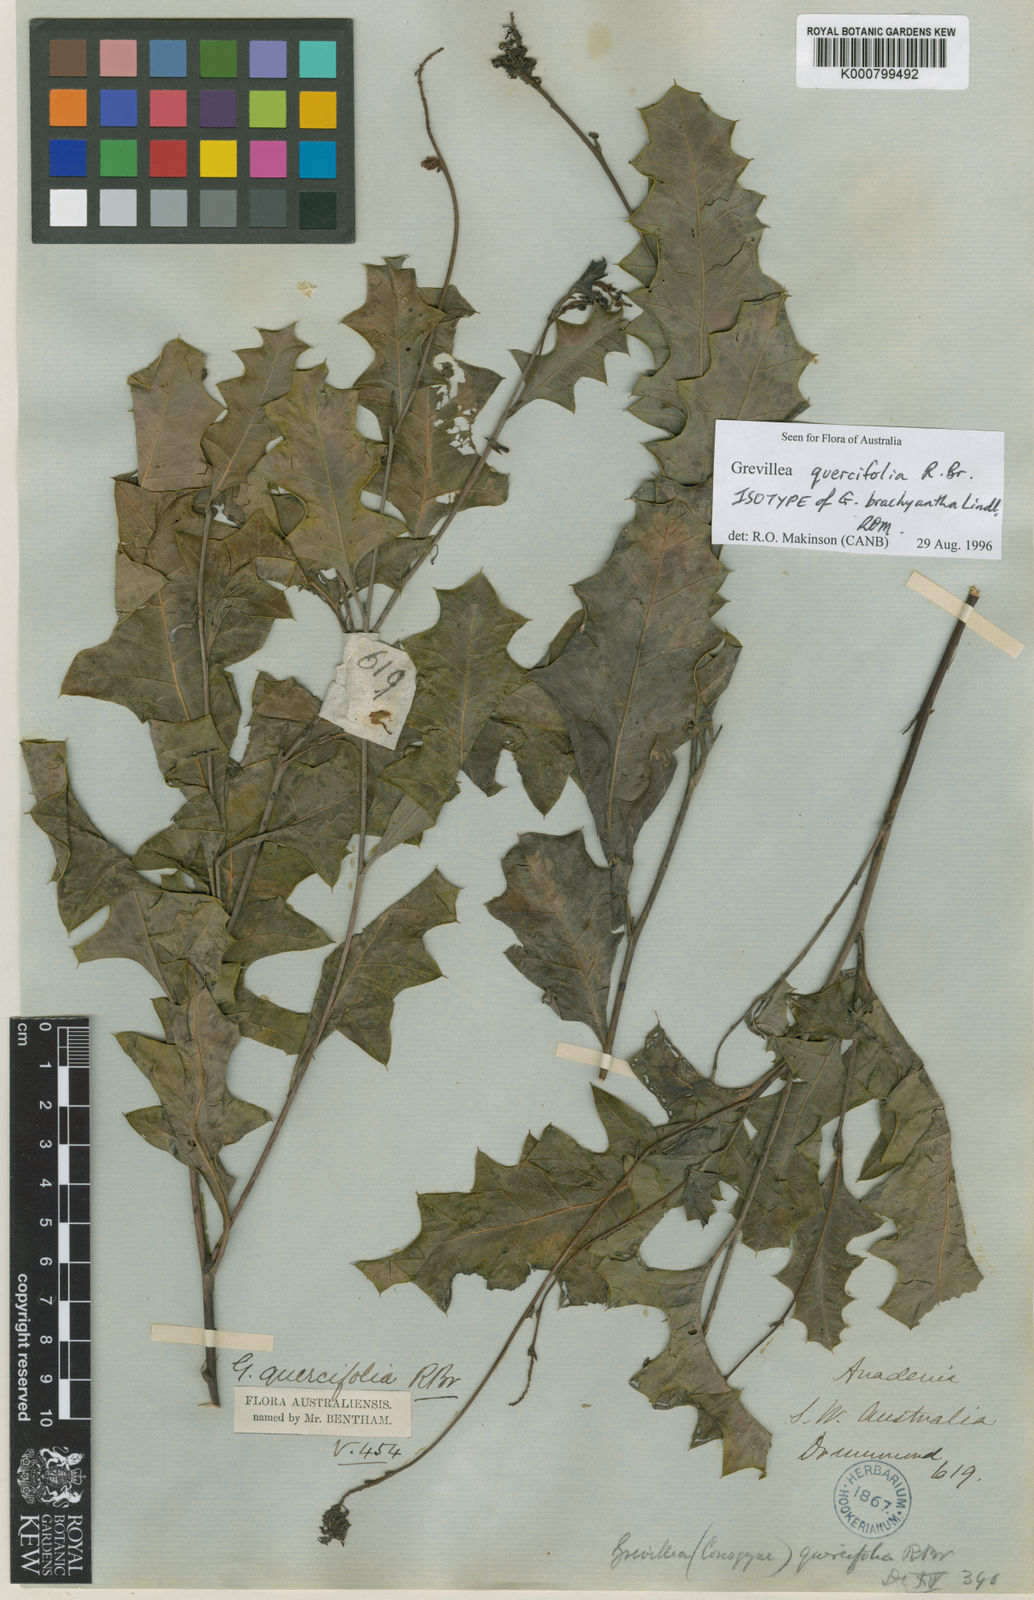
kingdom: Plantae
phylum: Tracheophyta
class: Magnoliopsida
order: Proteales
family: Proteaceae
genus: Grevillea
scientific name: Grevillea quercifolia
